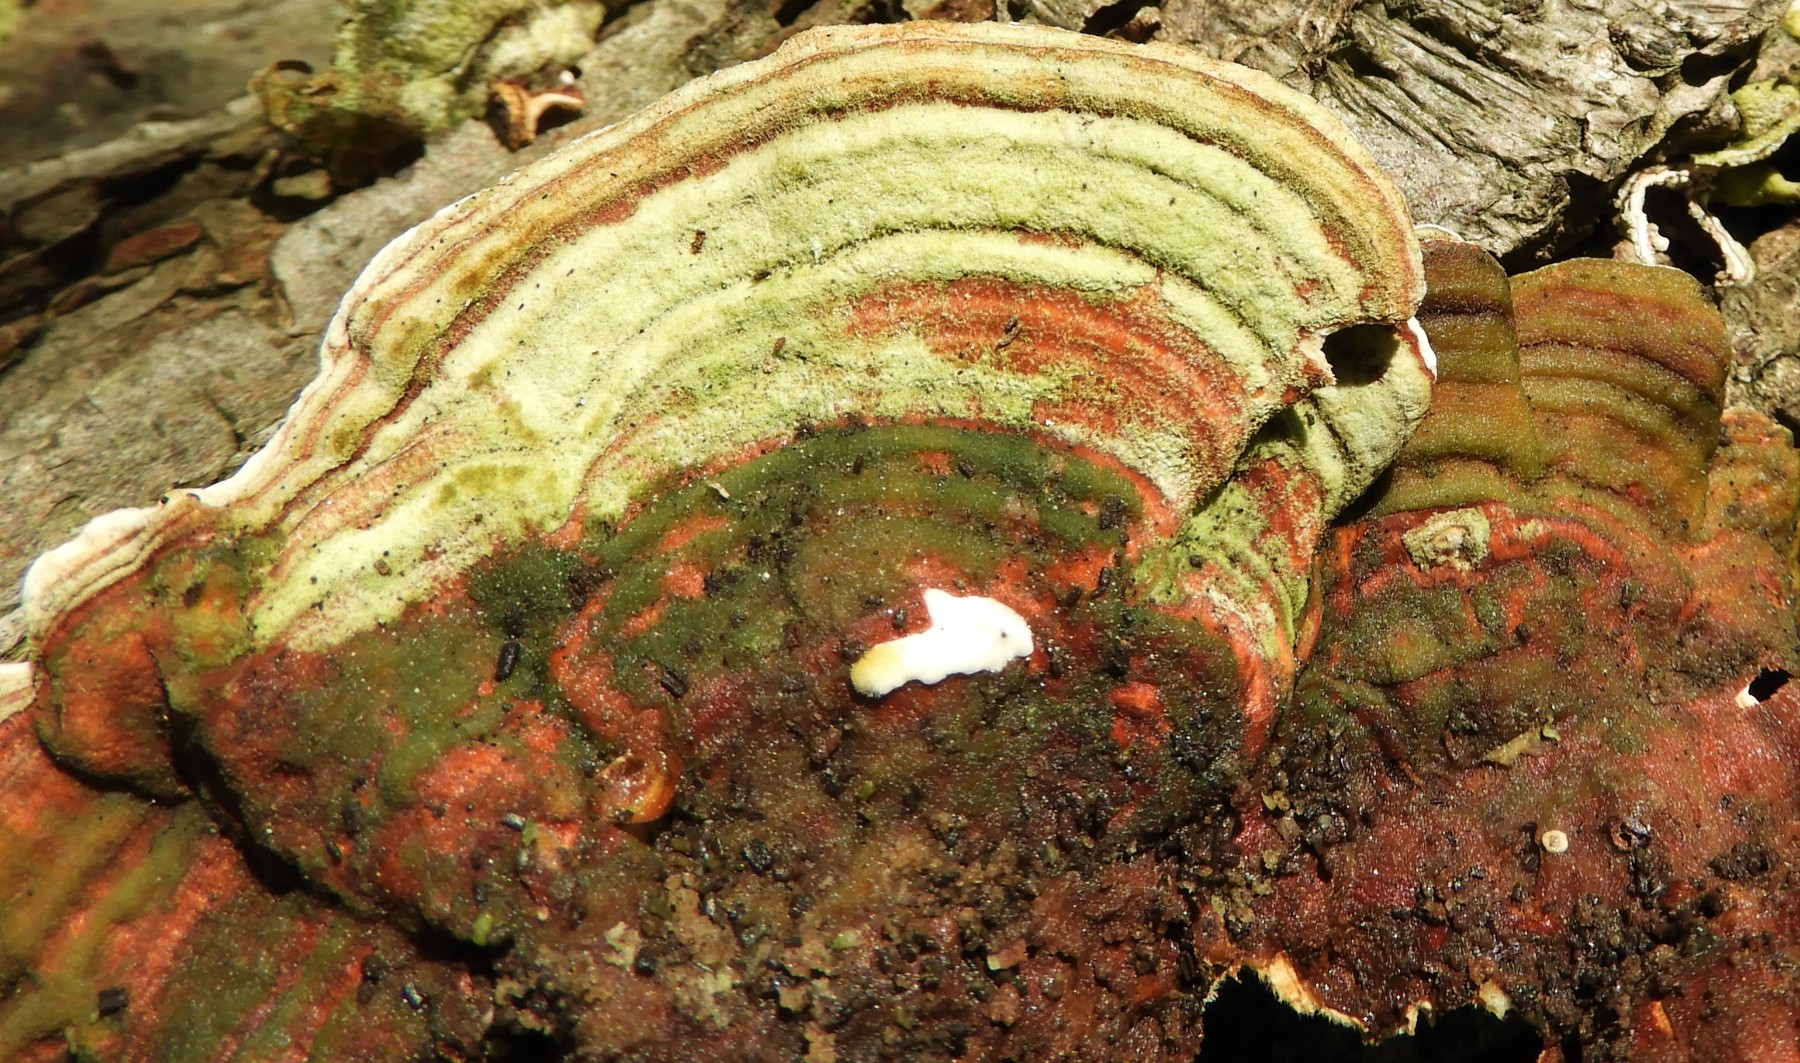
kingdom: Fungi
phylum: Basidiomycota
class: Agaricomycetes
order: Russulales
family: Stereaceae
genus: Stereum
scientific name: Stereum subtomentosum
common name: smuk lædersvamp
